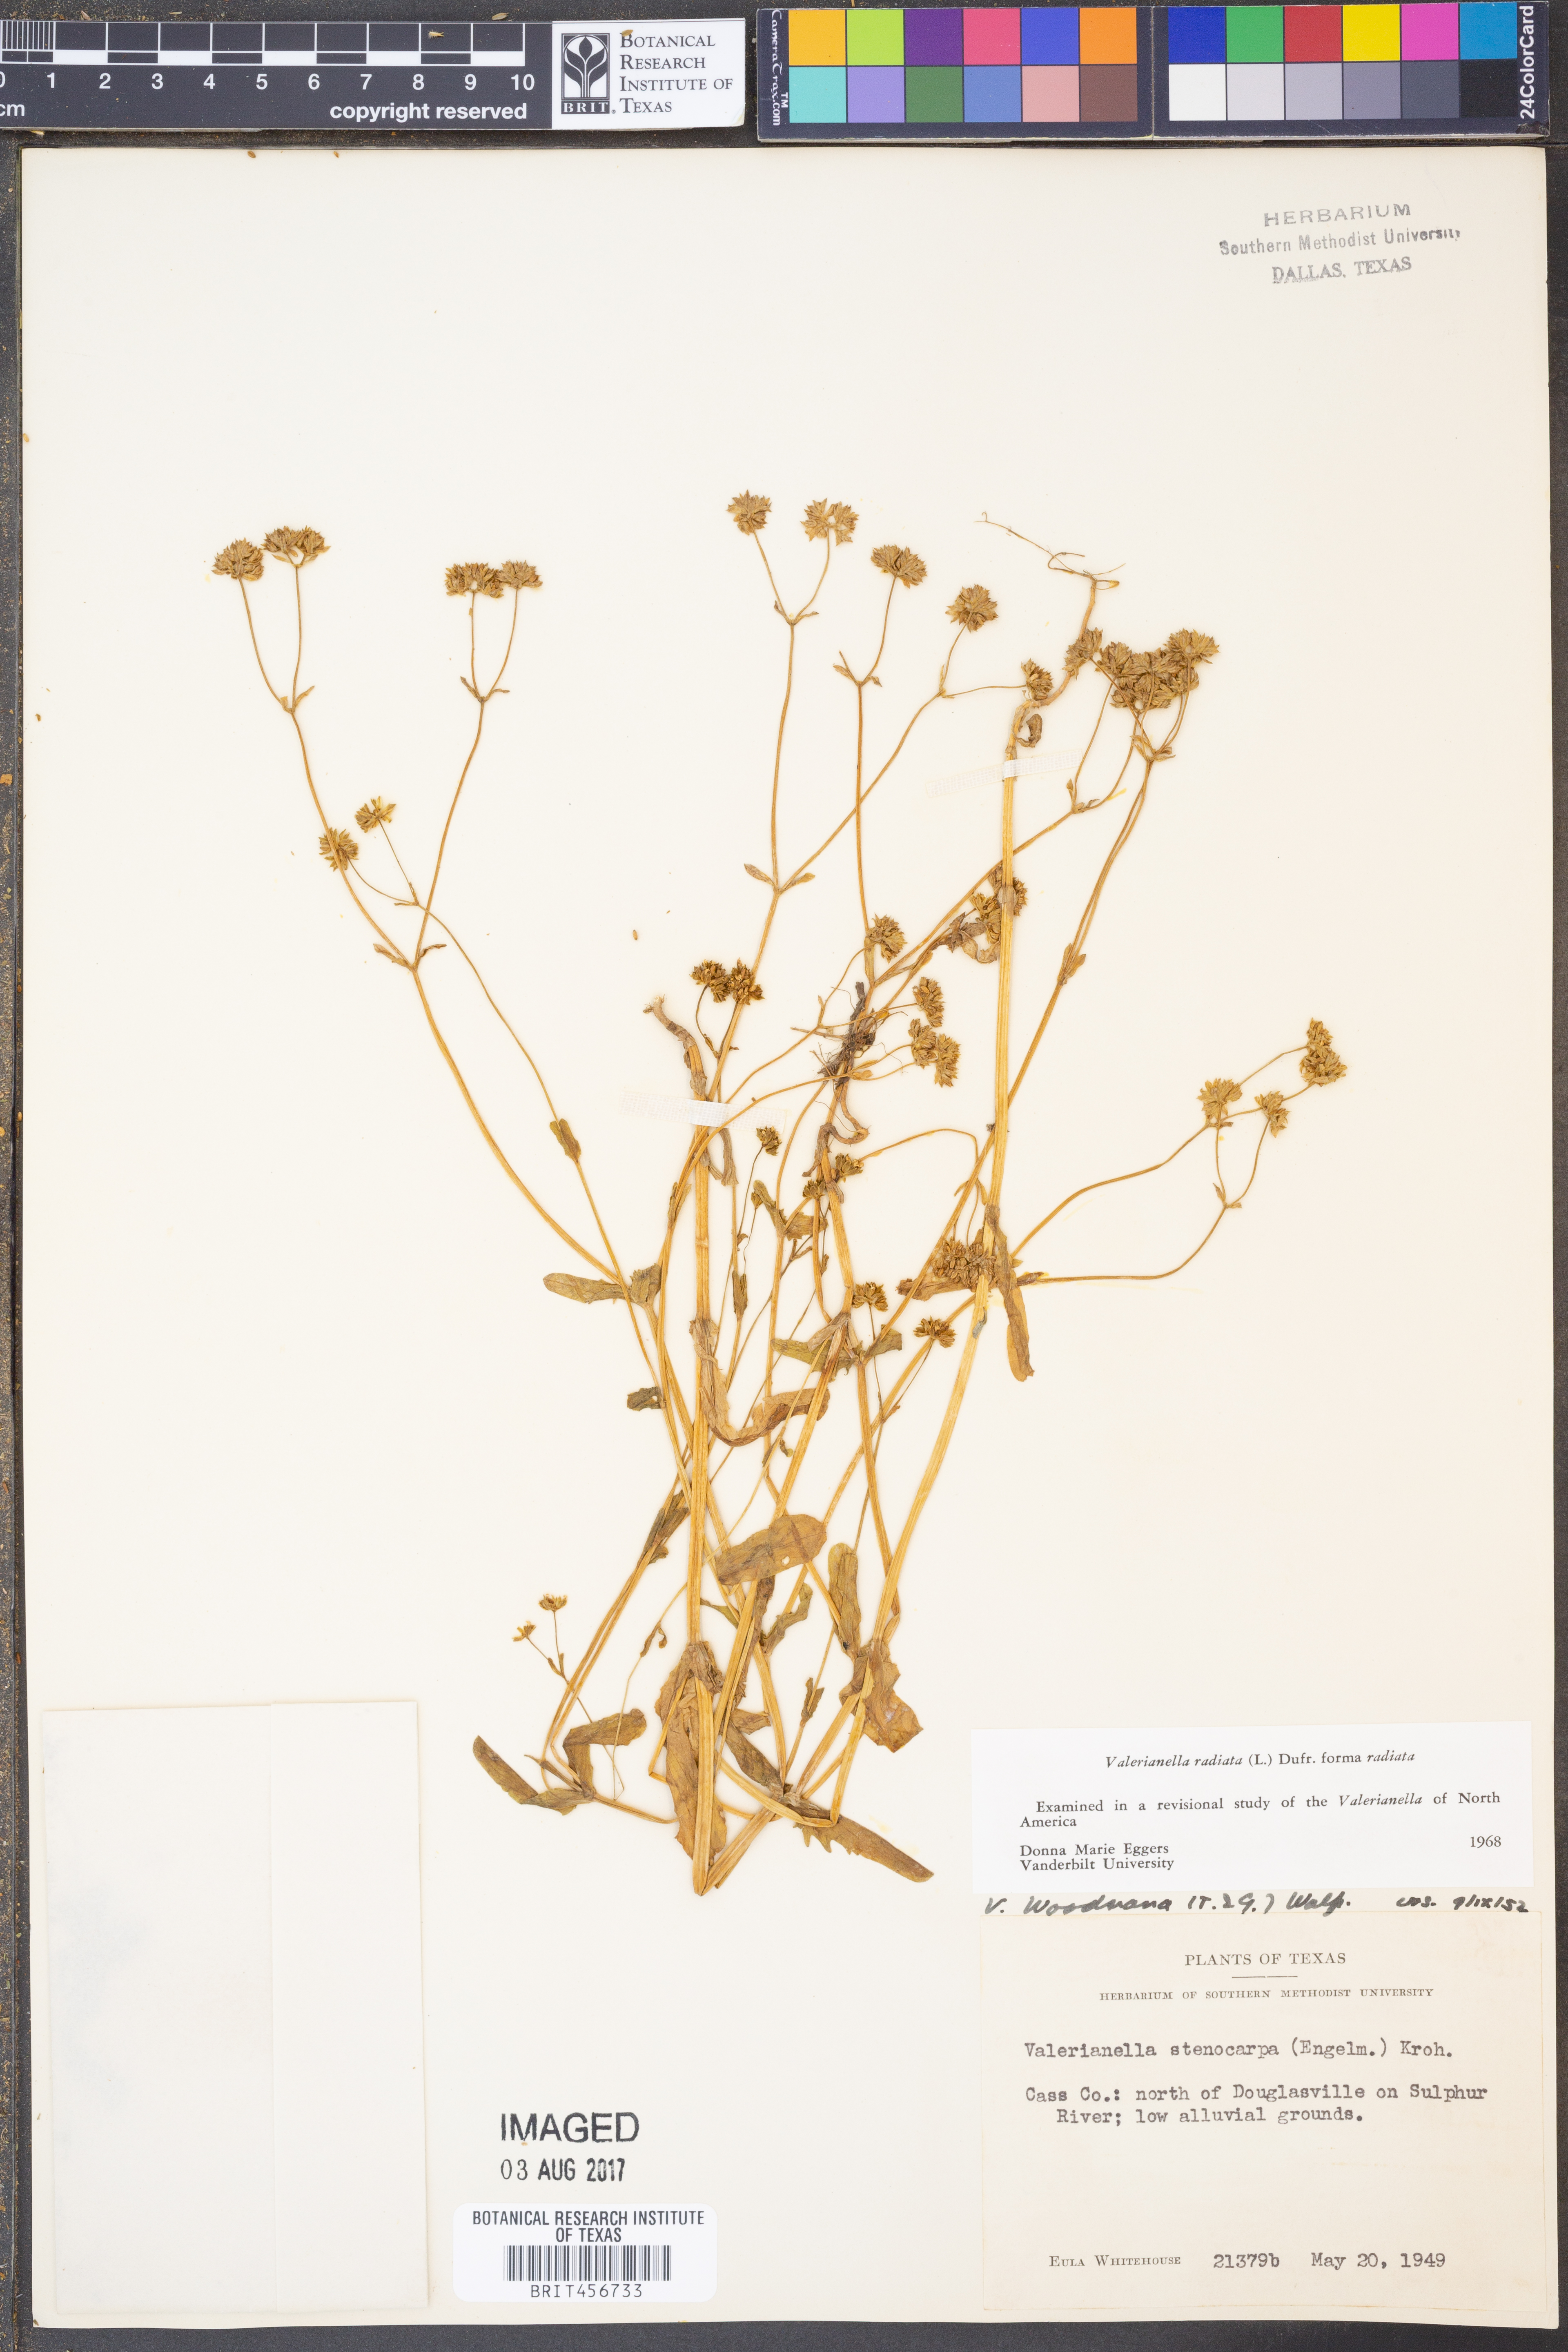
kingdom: Plantae
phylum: Tracheophyta
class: Magnoliopsida
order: Dipsacales
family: Caprifoliaceae
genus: Valerianella
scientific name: Valerianella radiata
